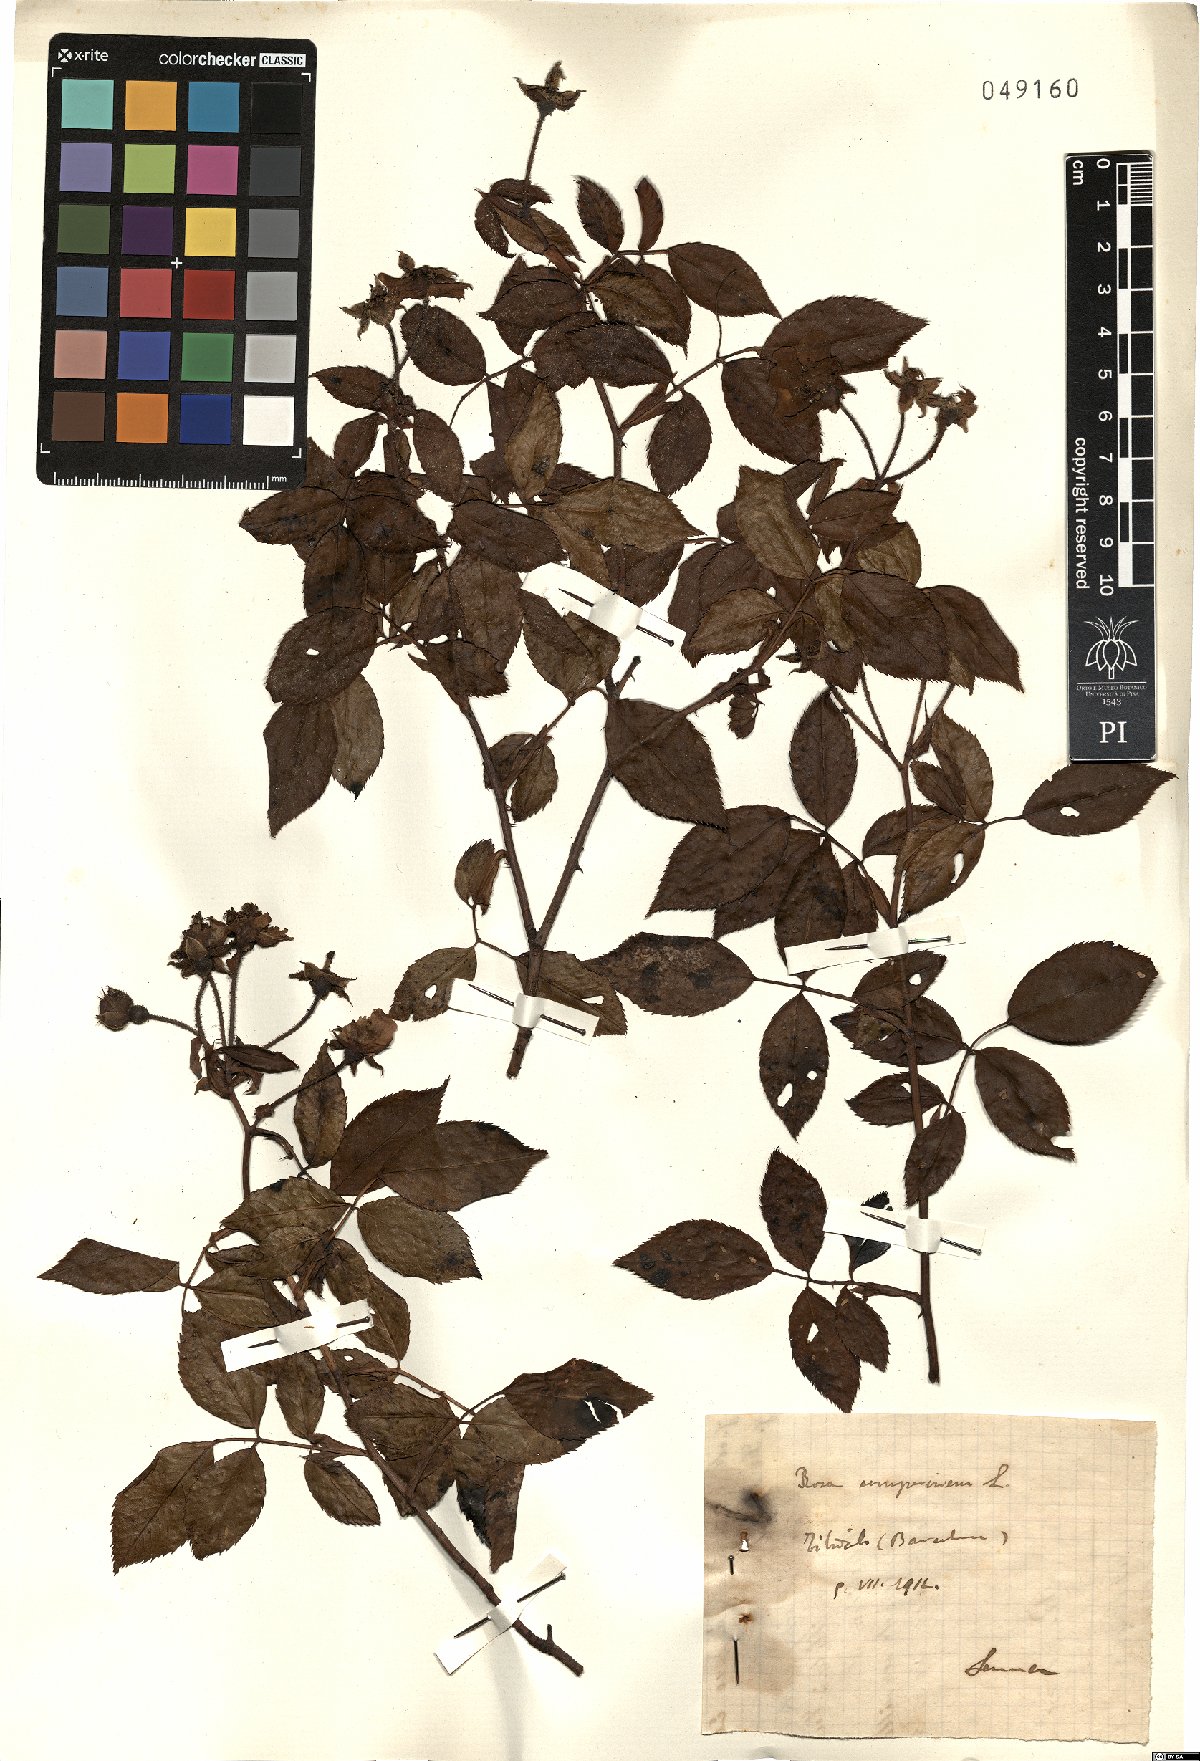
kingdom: Plantae
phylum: Tracheophyta
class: Magnoliopsida
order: Rosales
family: Rosaceae
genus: Rosa
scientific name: Rosa sempervirens
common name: Evergreen rose
